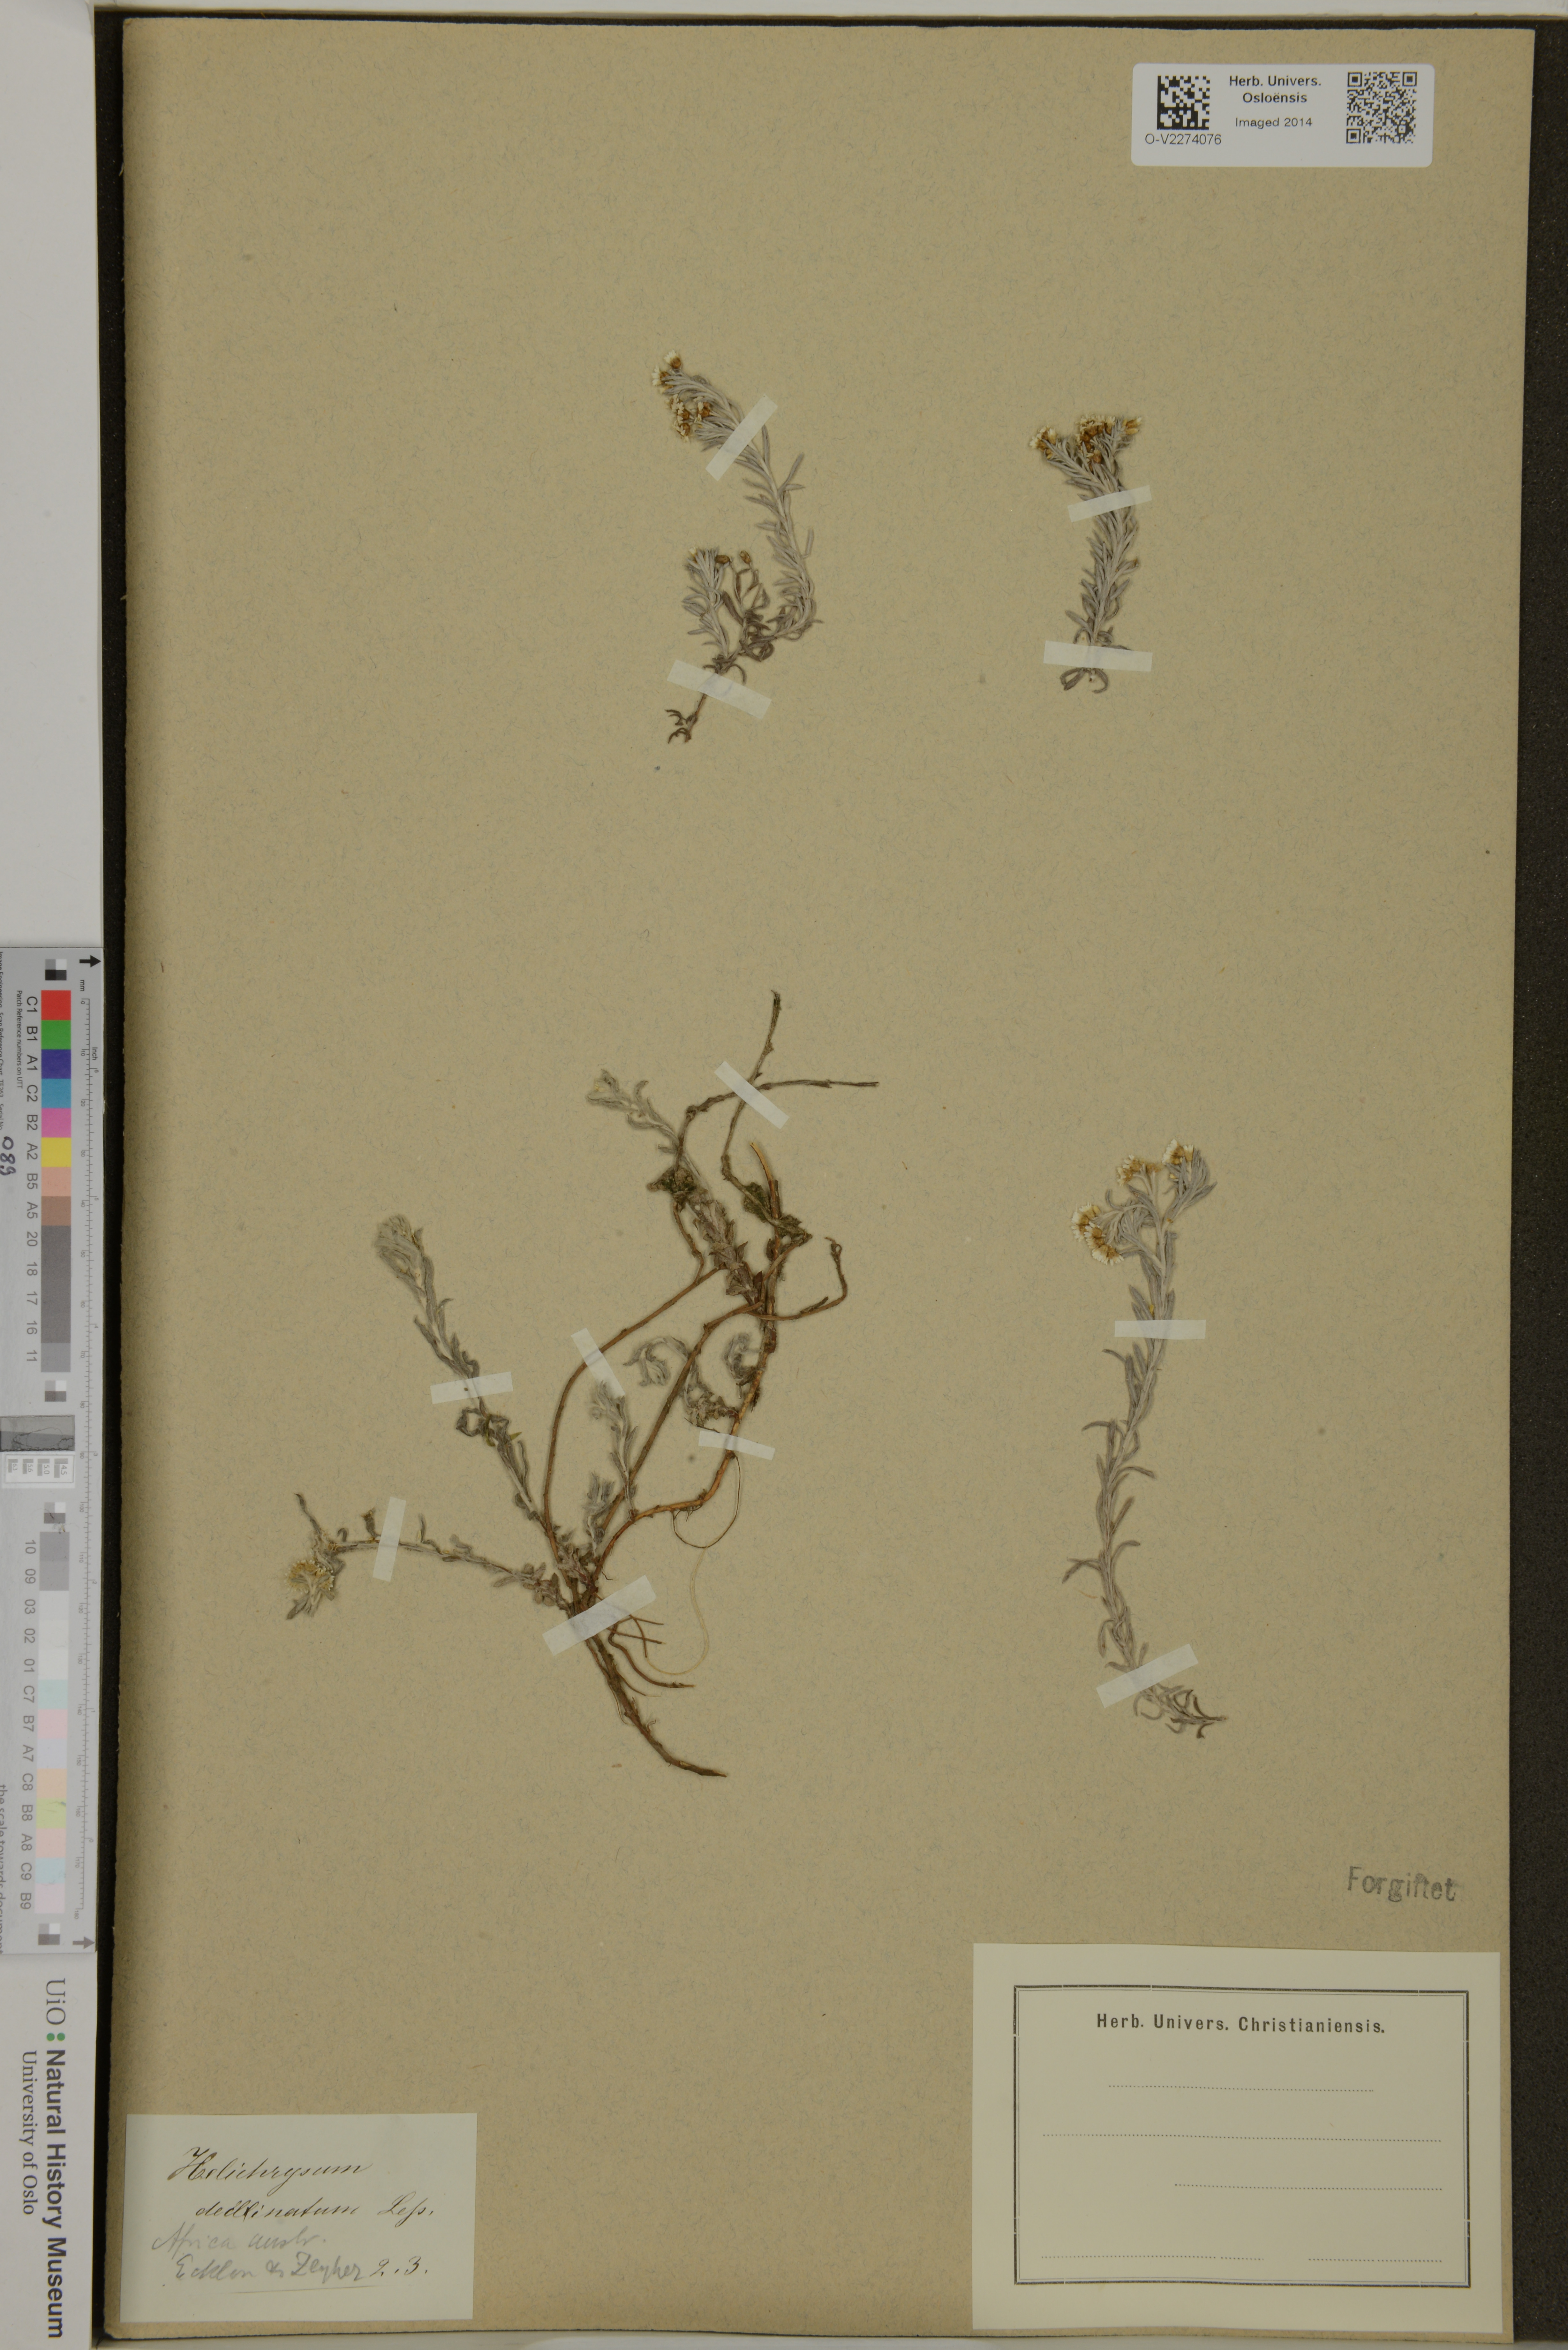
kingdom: Plantae
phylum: Tracheophyta
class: Magnoliopsida
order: Asterales
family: Asteraceae
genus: Gnaphalium
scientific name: Gnaphalium declinatum
